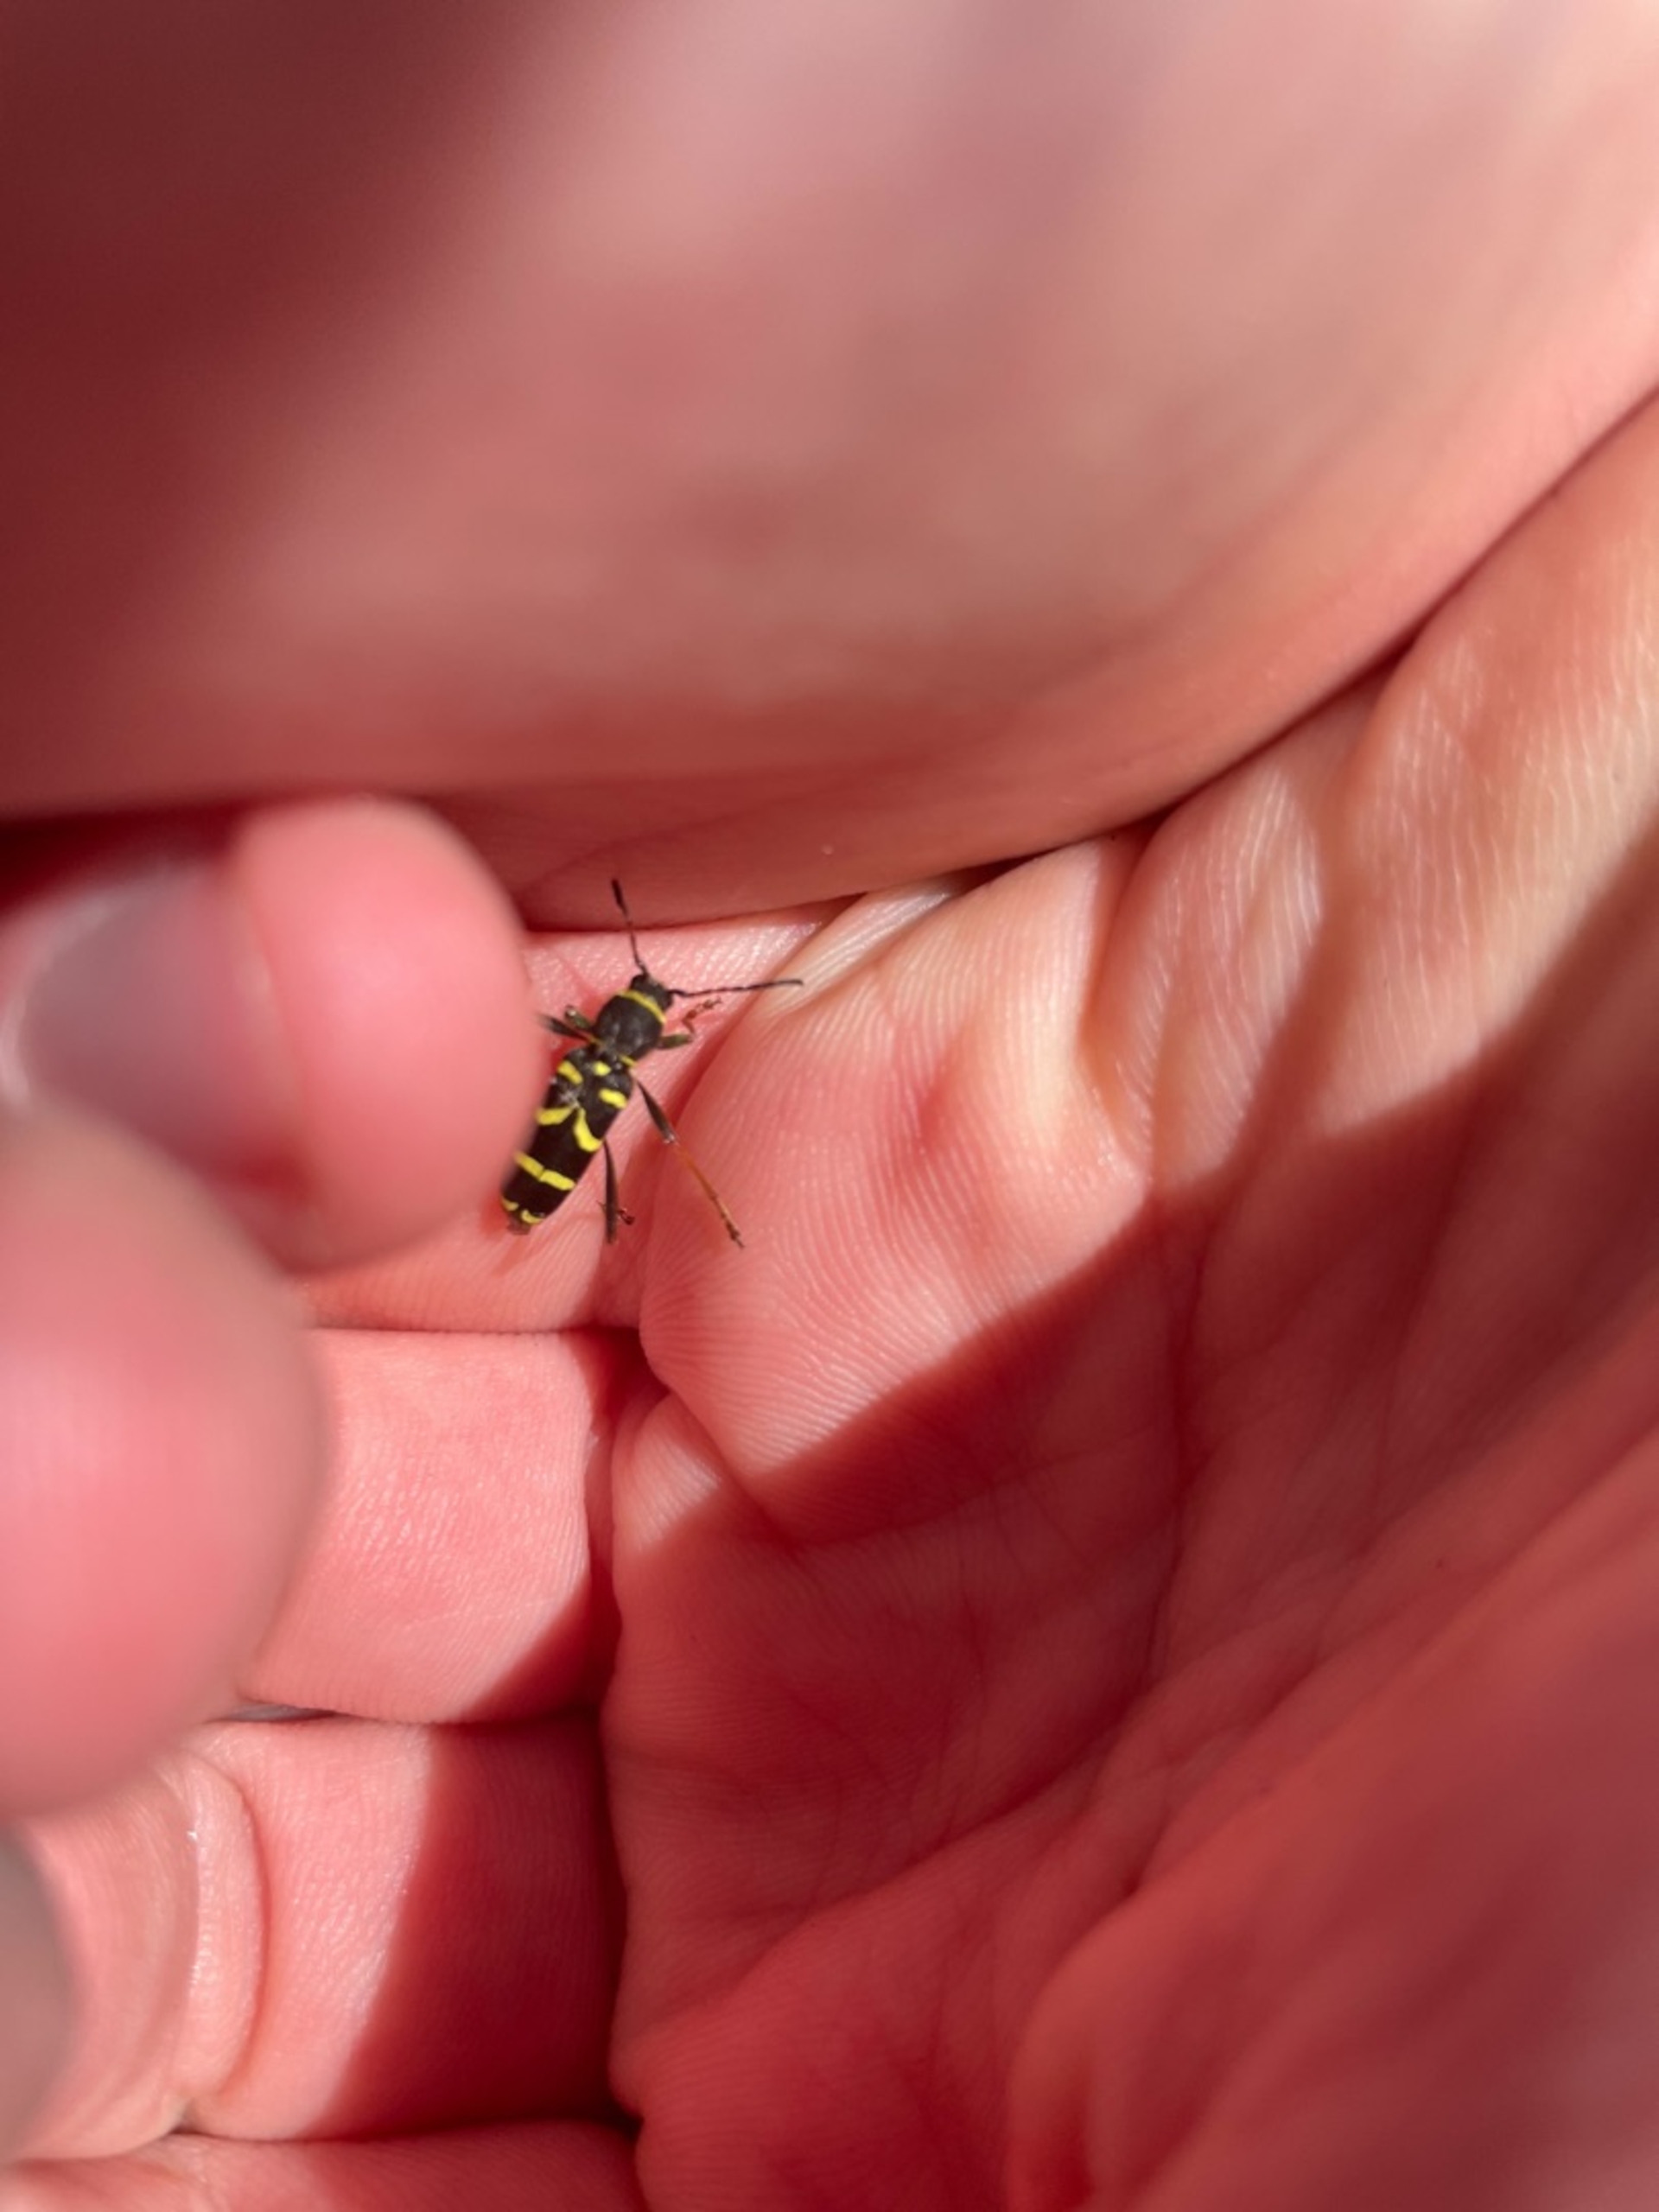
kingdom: Animalia
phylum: Arthropoda
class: Insecta
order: Coleoptera
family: Cerambycidae
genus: Clytus
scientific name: Clytus arietis
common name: Lille hvepsebuk
